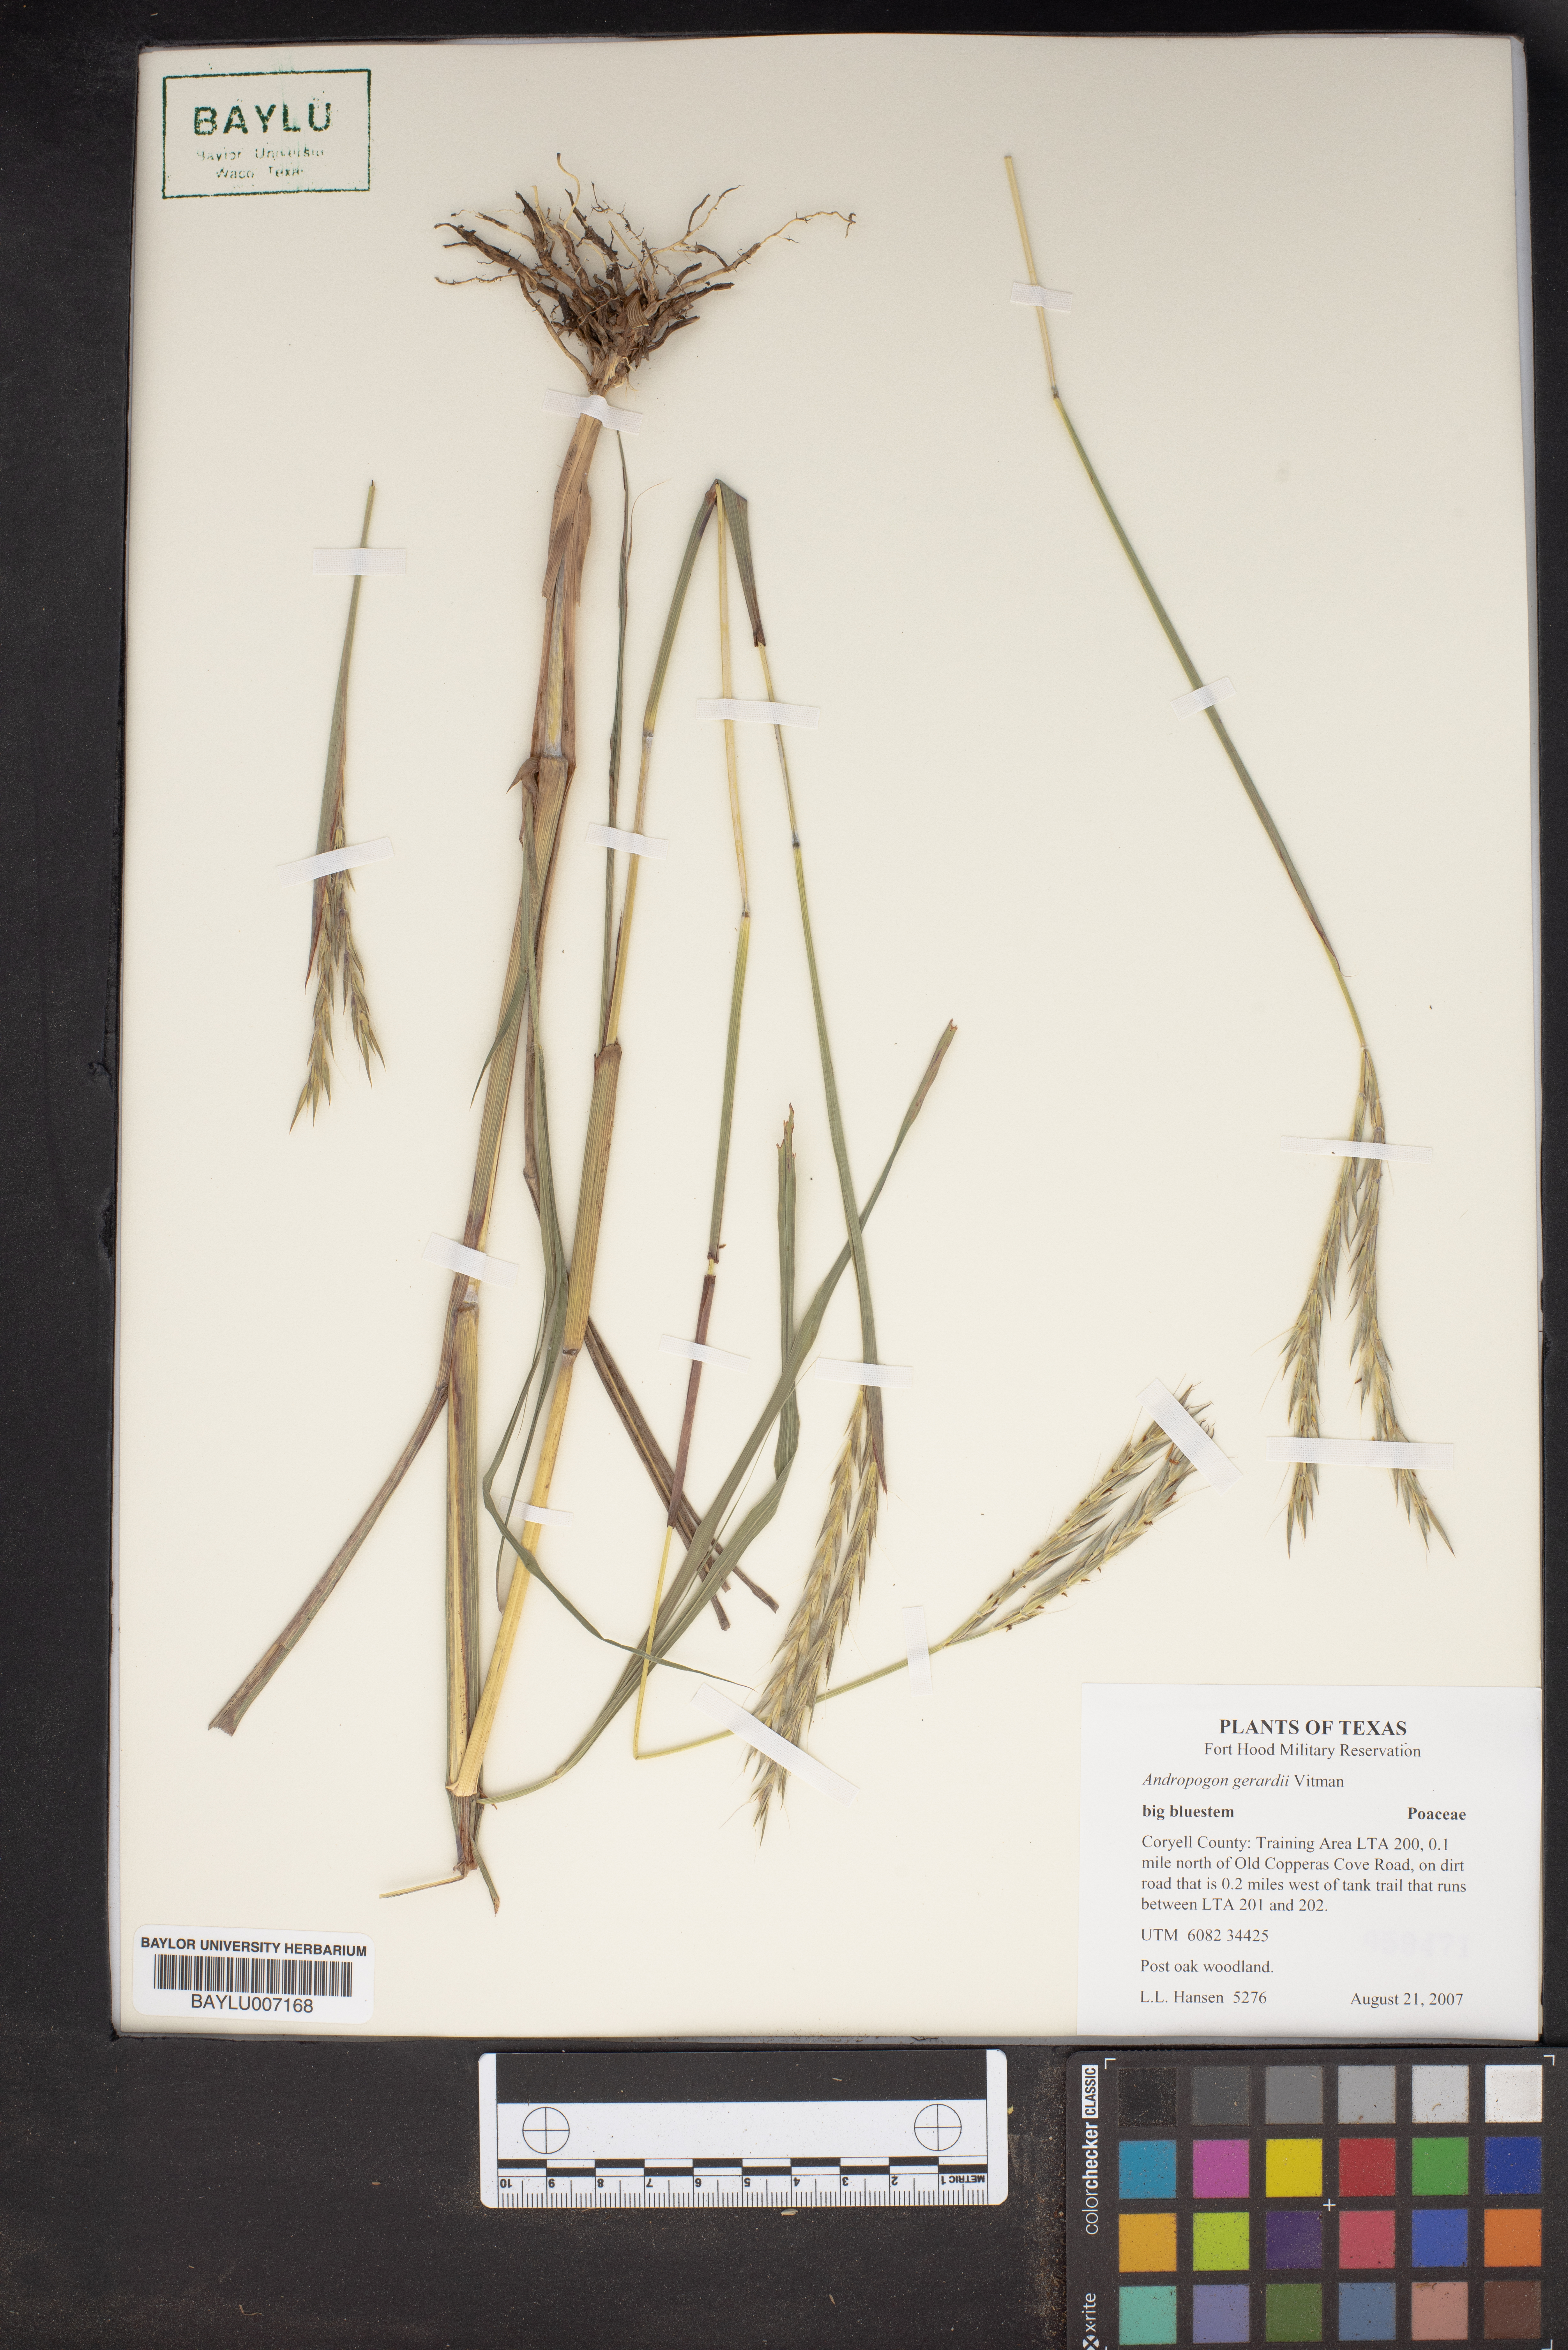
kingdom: Plantae
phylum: Tracheophyta
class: Liliopsida
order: Poales
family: Poaceae
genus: Andropogon
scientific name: Andropogon gerardi
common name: Big bluestem
